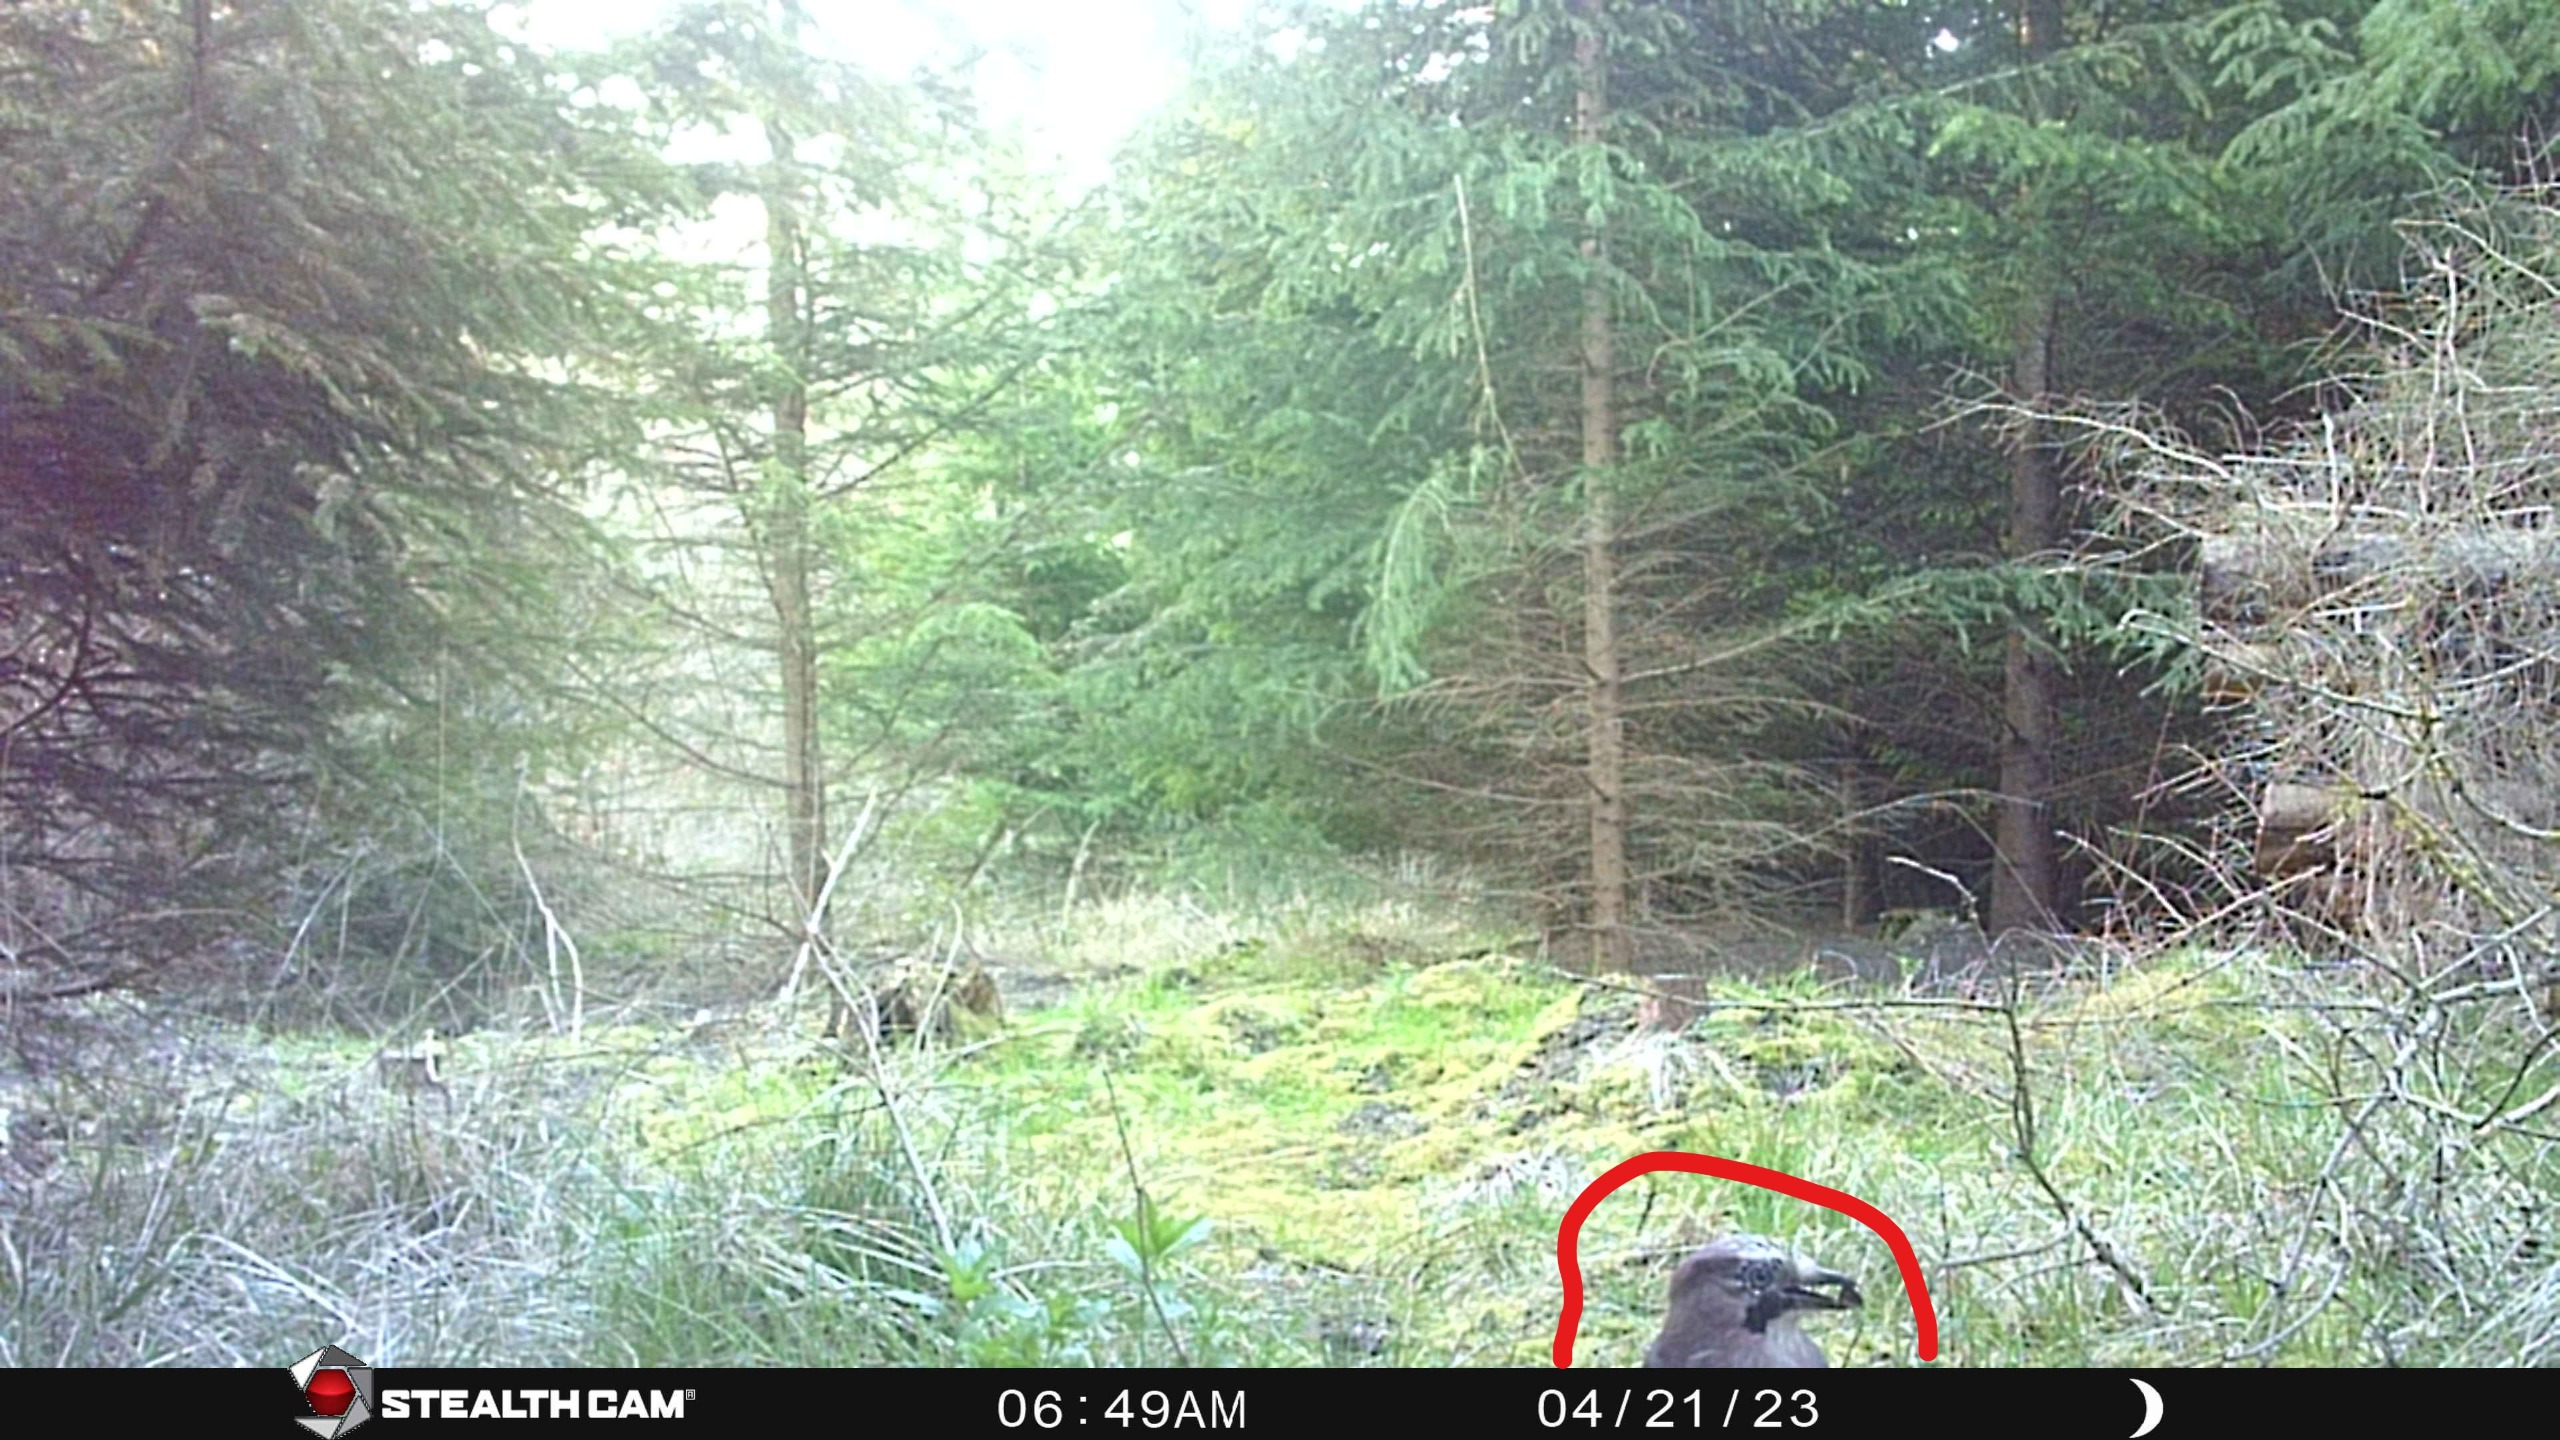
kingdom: Animalia
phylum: Chordata
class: Aves
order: Passeriformes
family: Corvidae
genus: Garrulus
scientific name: Garrulus glandarius
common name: Skovskade
